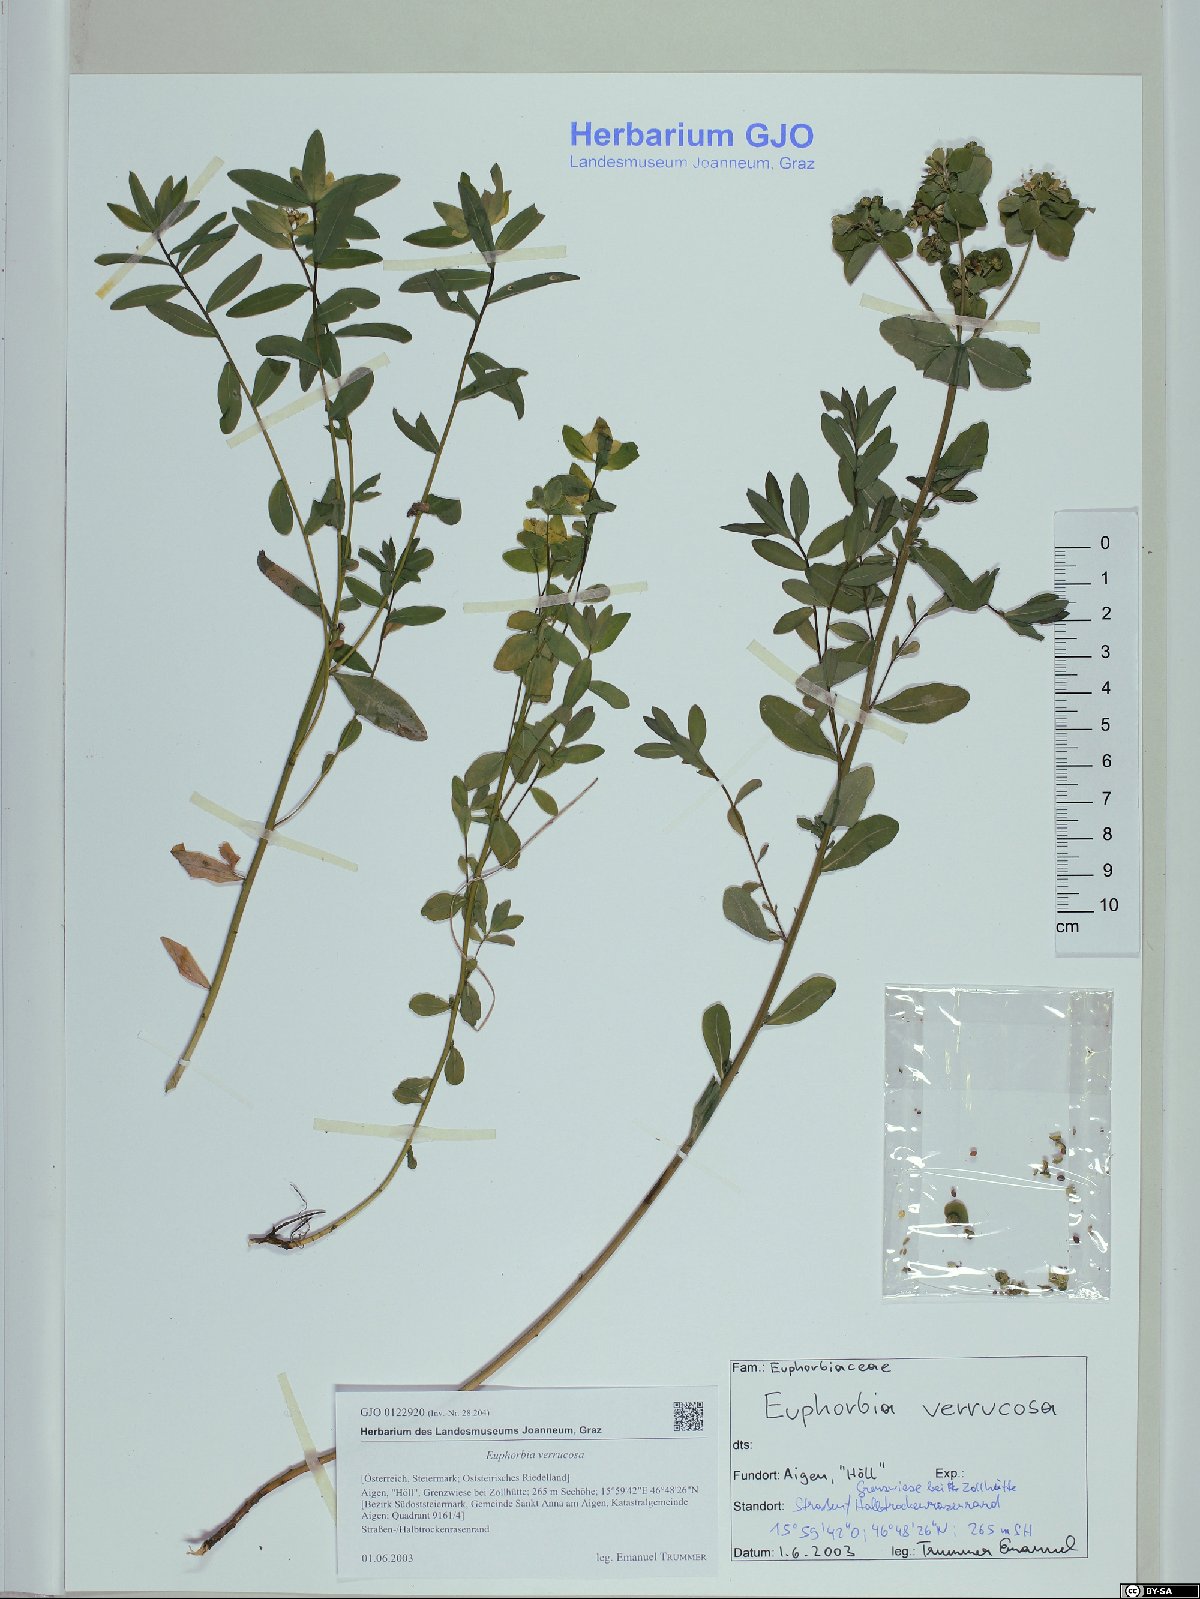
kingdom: Plantae
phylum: Tracheophyta
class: Magnoliopsida
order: Malpighiales
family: Euphorbiaceae
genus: Euphorbia
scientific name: Euphorbia verrucosa
